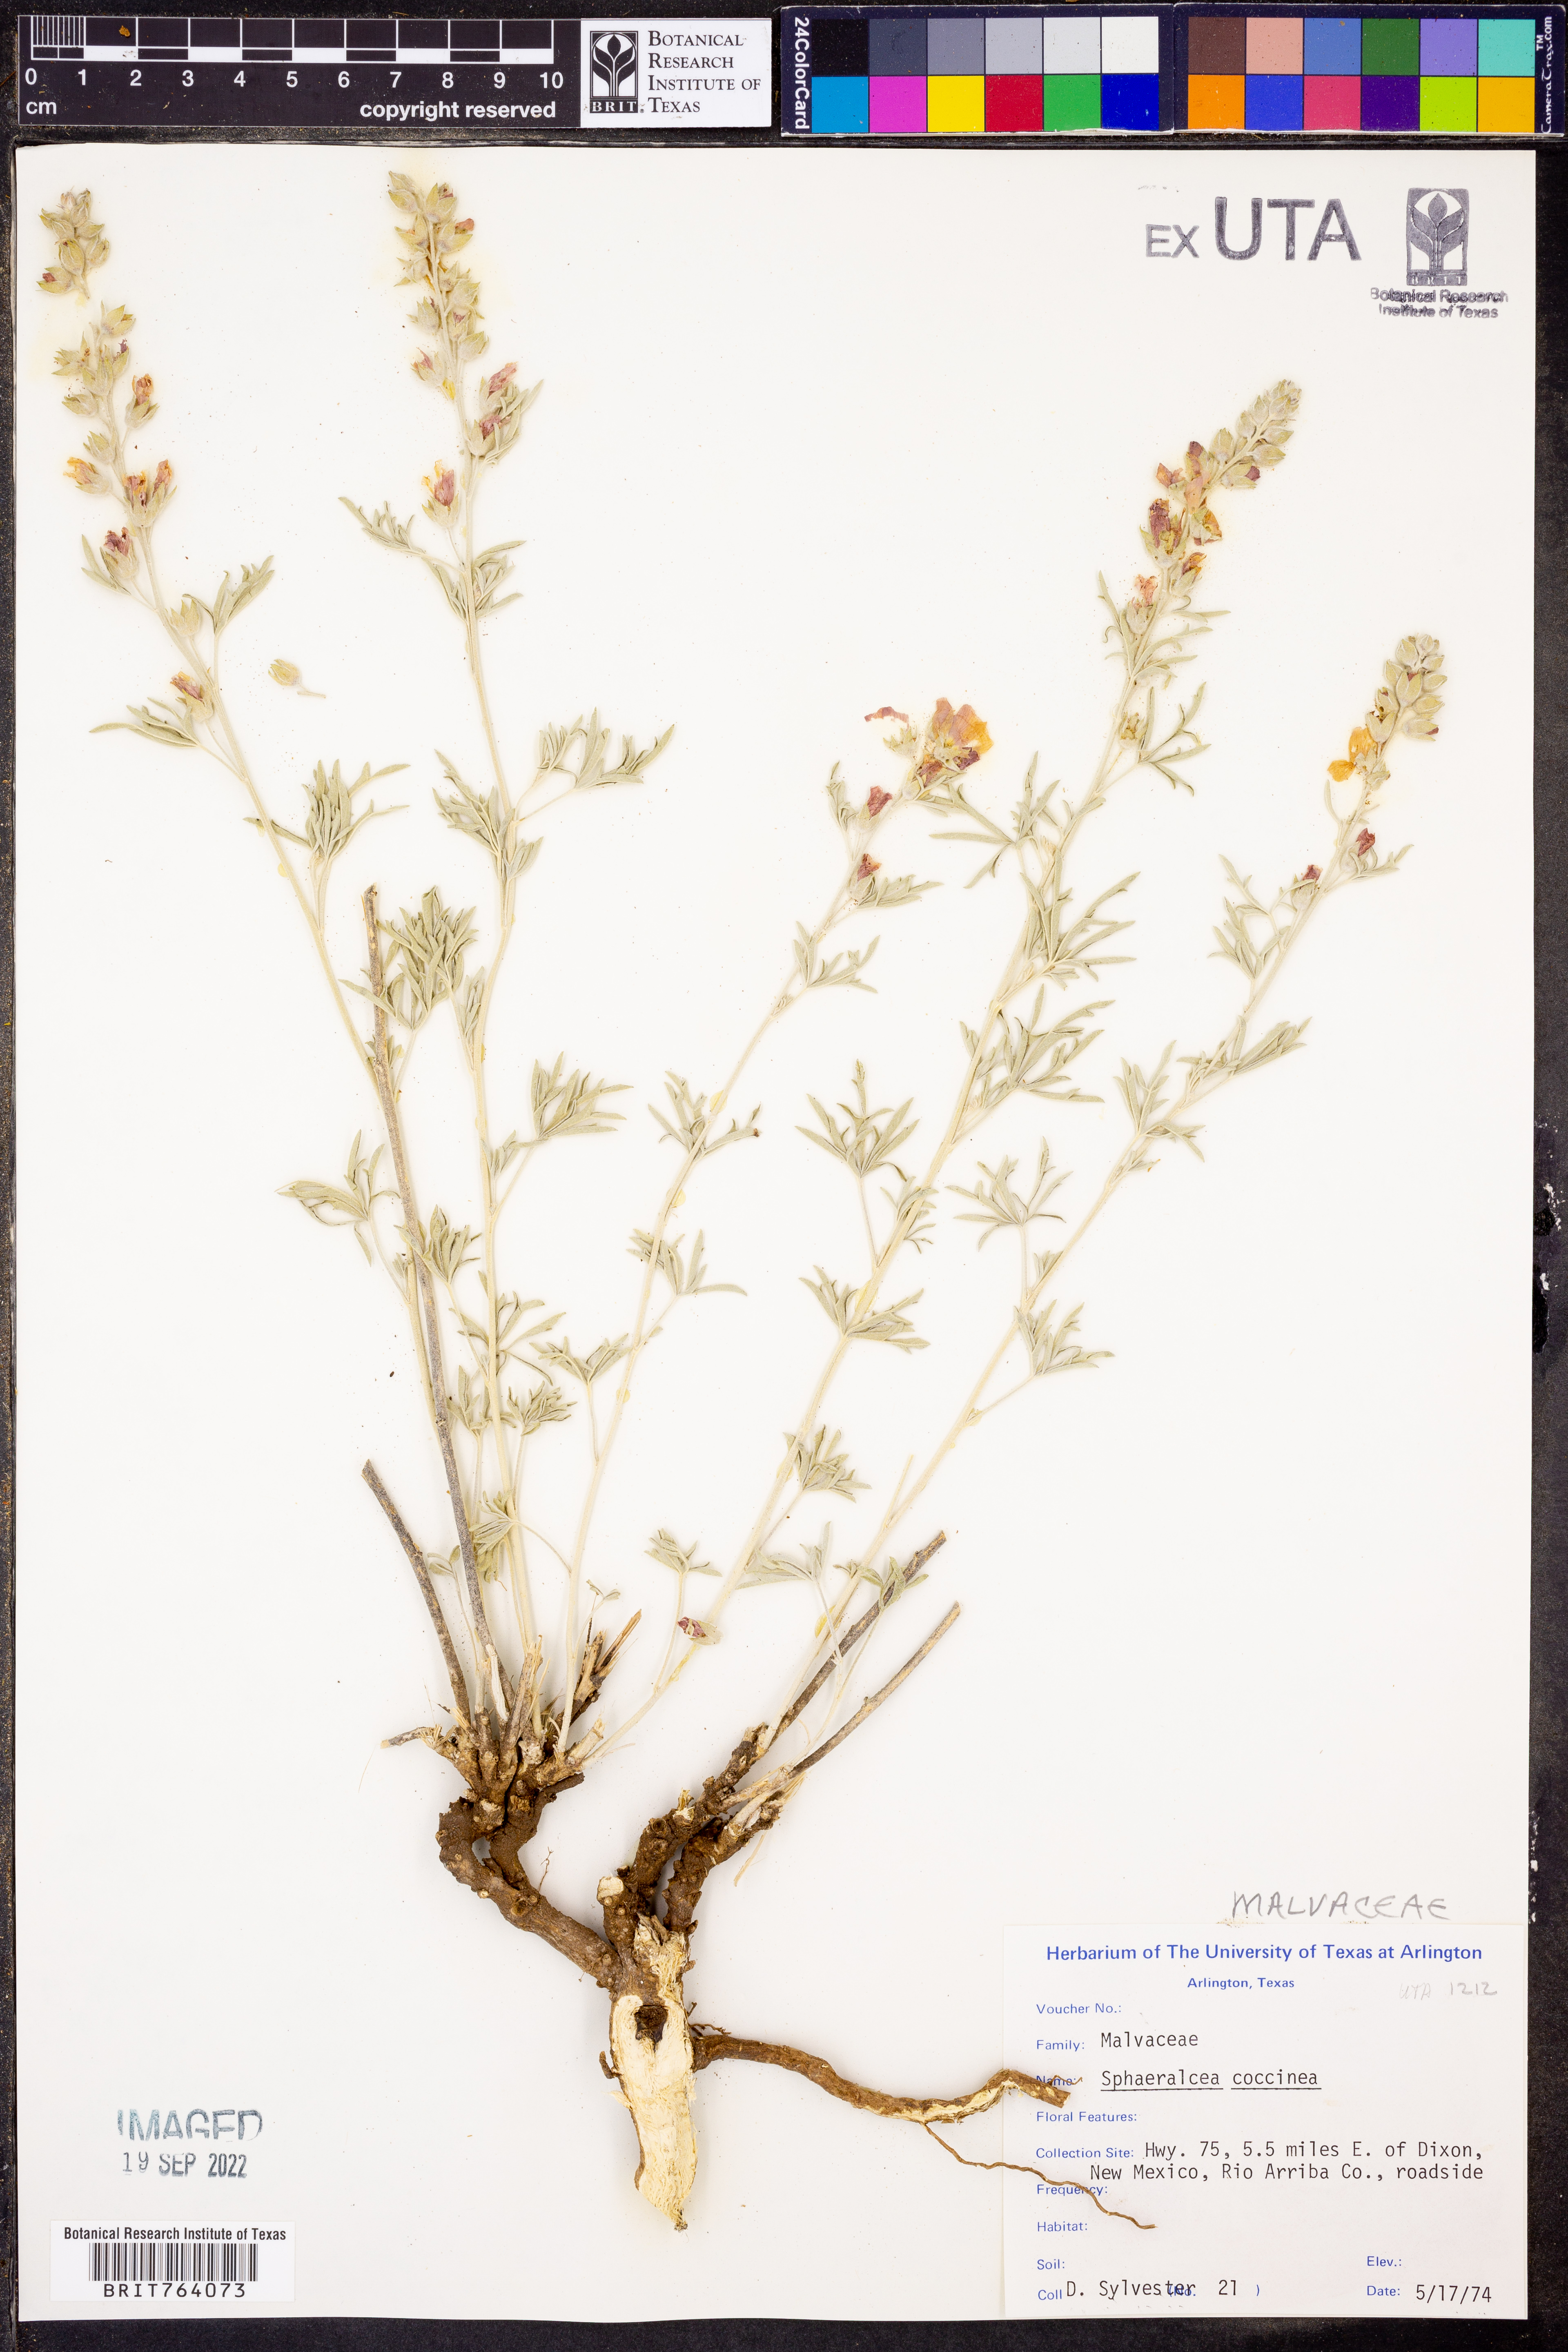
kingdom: Plantae
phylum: Tracheophyta
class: Magnoliopsida
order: Malvales
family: Malvaceae
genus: Sphaeralcea
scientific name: Sphaeralcea coccinea
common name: Moss-rose
